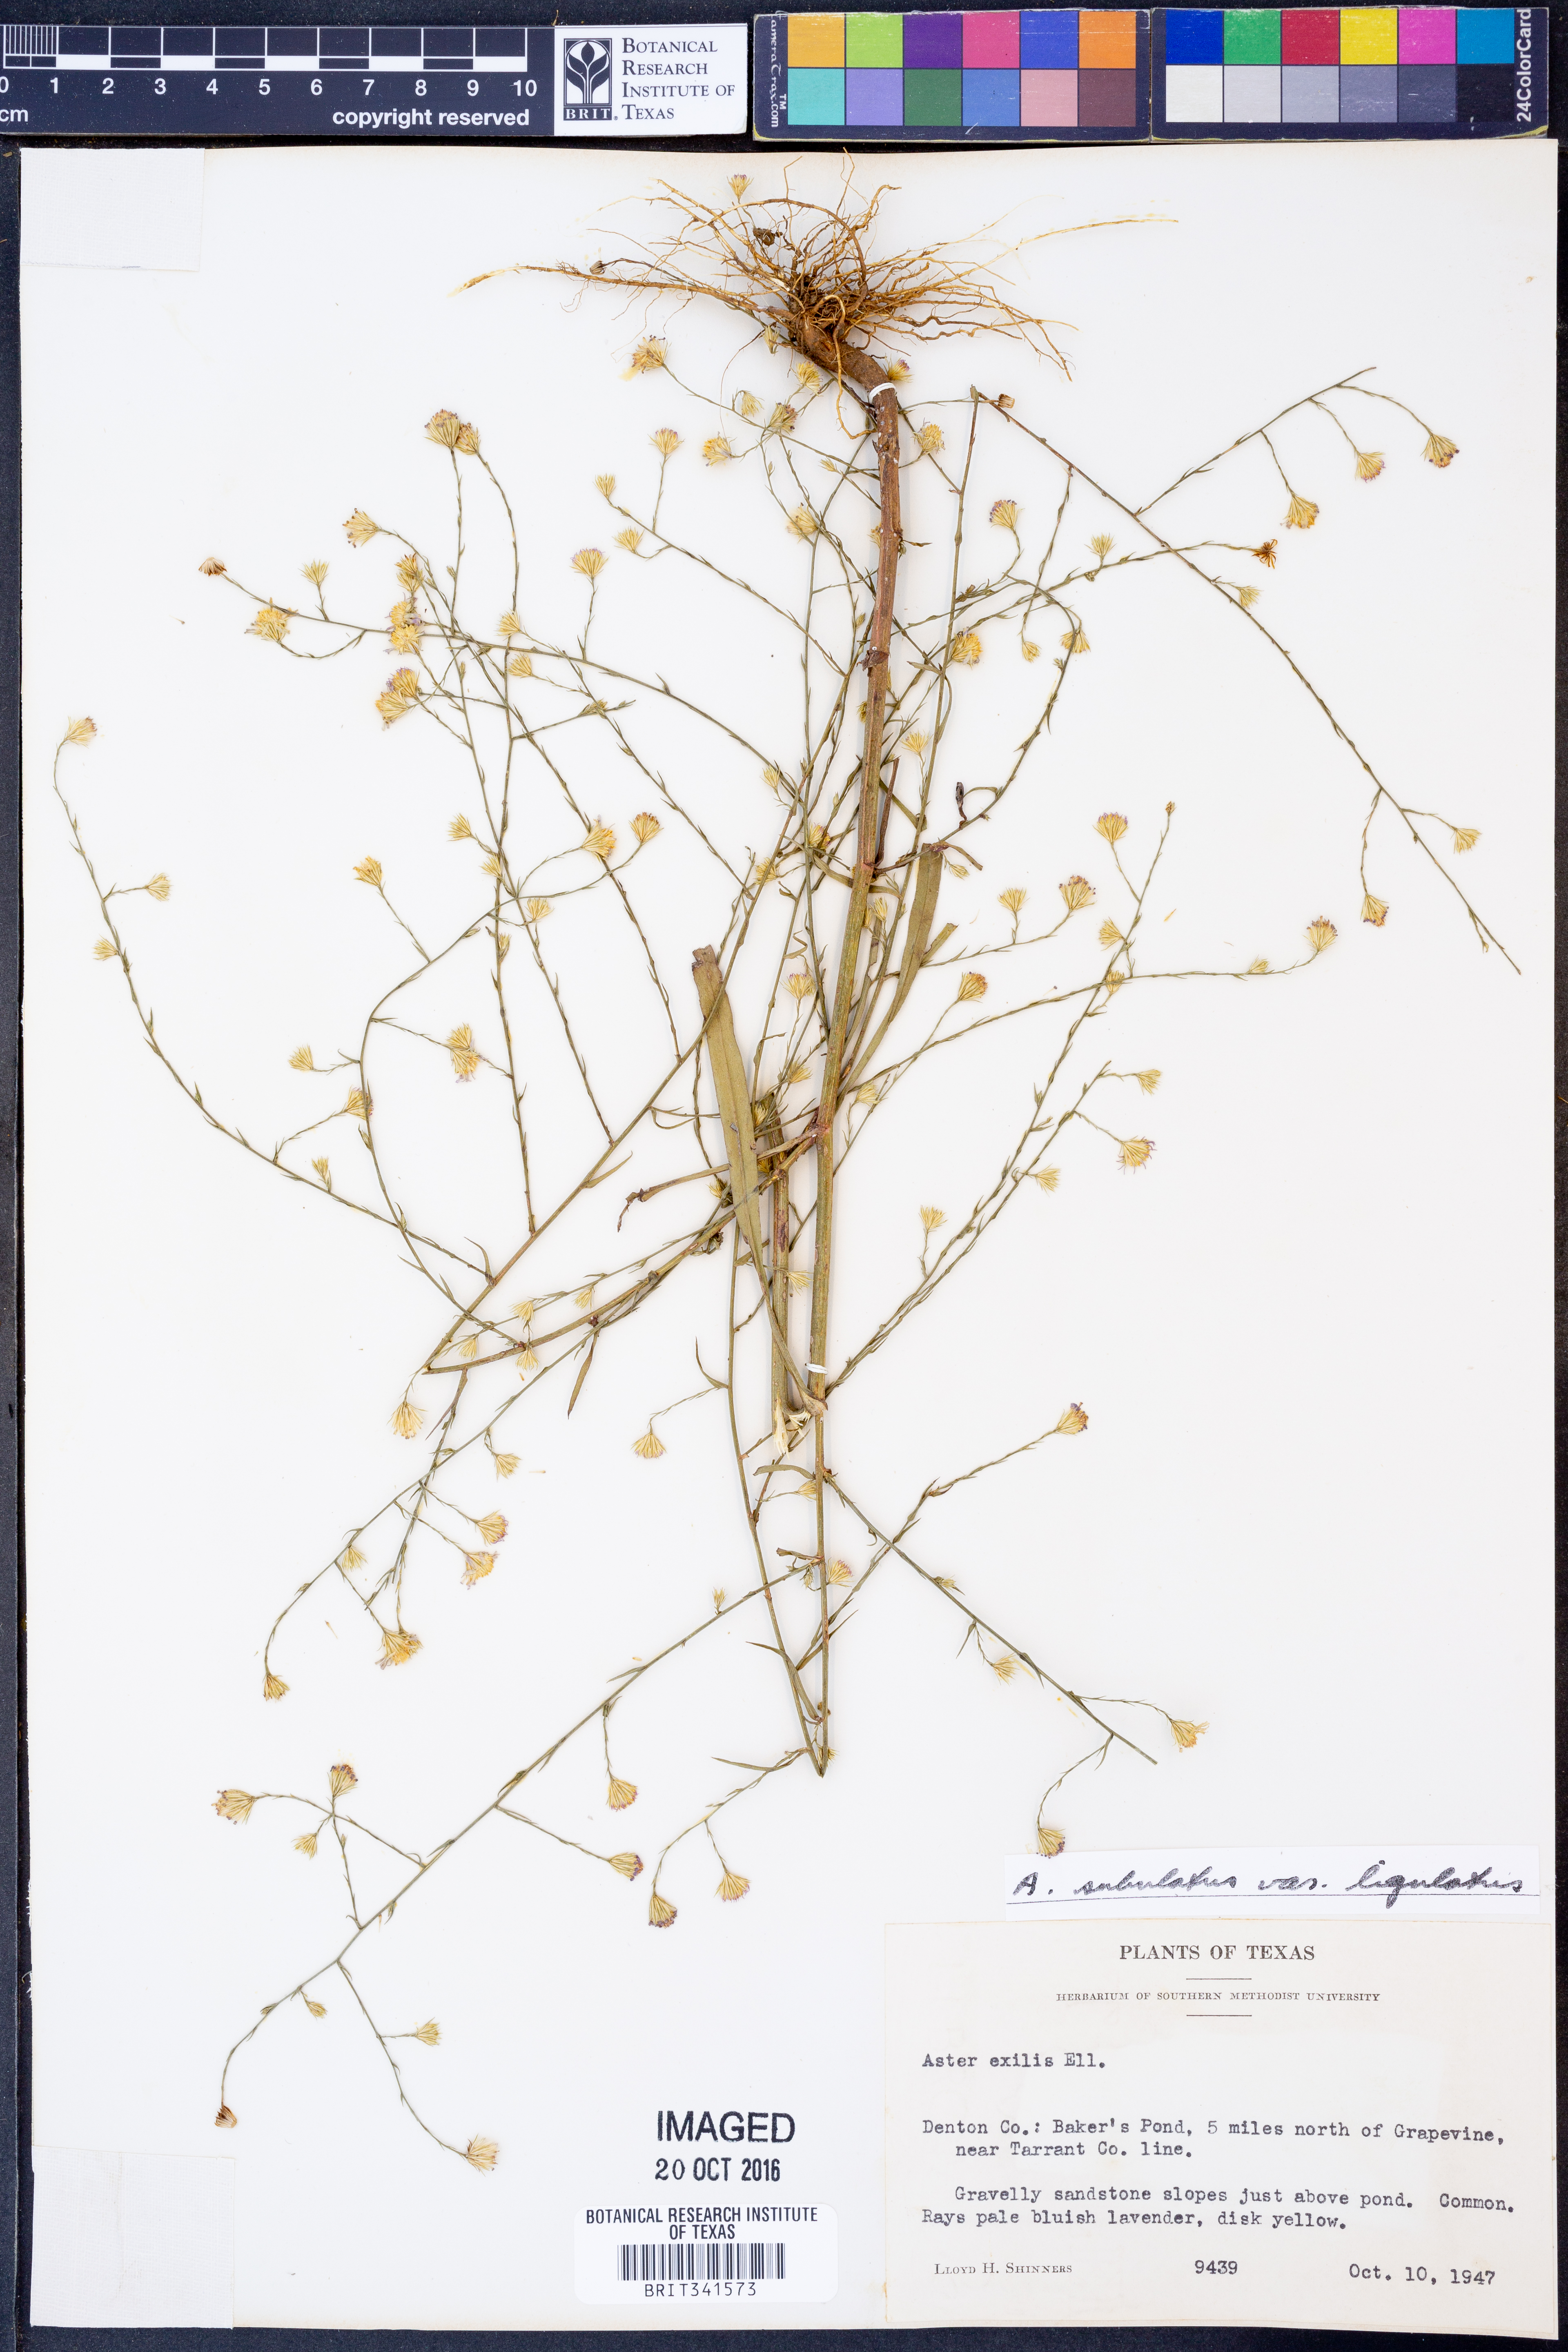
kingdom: Plantae
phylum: Tracheophyta
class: Magnoliopsida
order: Asterales
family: Asteraceae
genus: Symphyotrichum
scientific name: Symphyotrichum divaricatum
